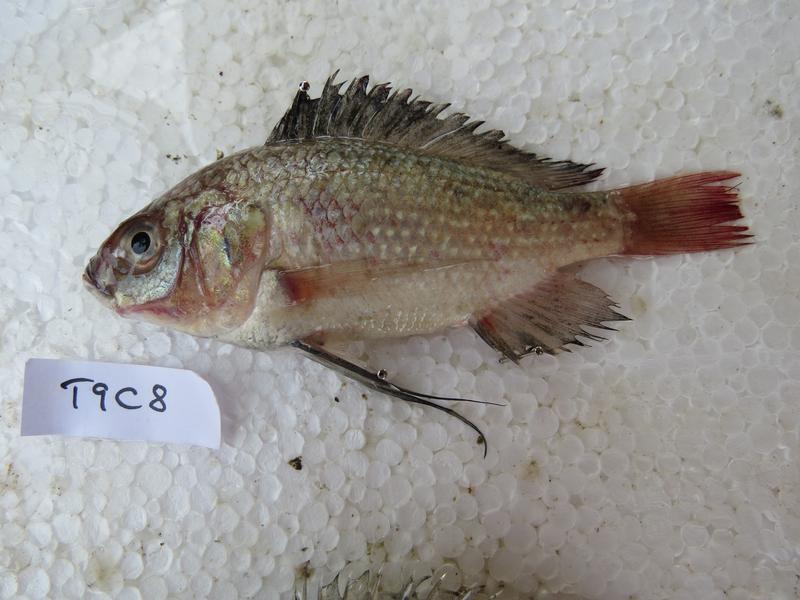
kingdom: Animalia
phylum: Chordata
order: Perciformes
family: Cichlidae
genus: Oreochromis
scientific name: Oreochromis esculentus
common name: Carp
